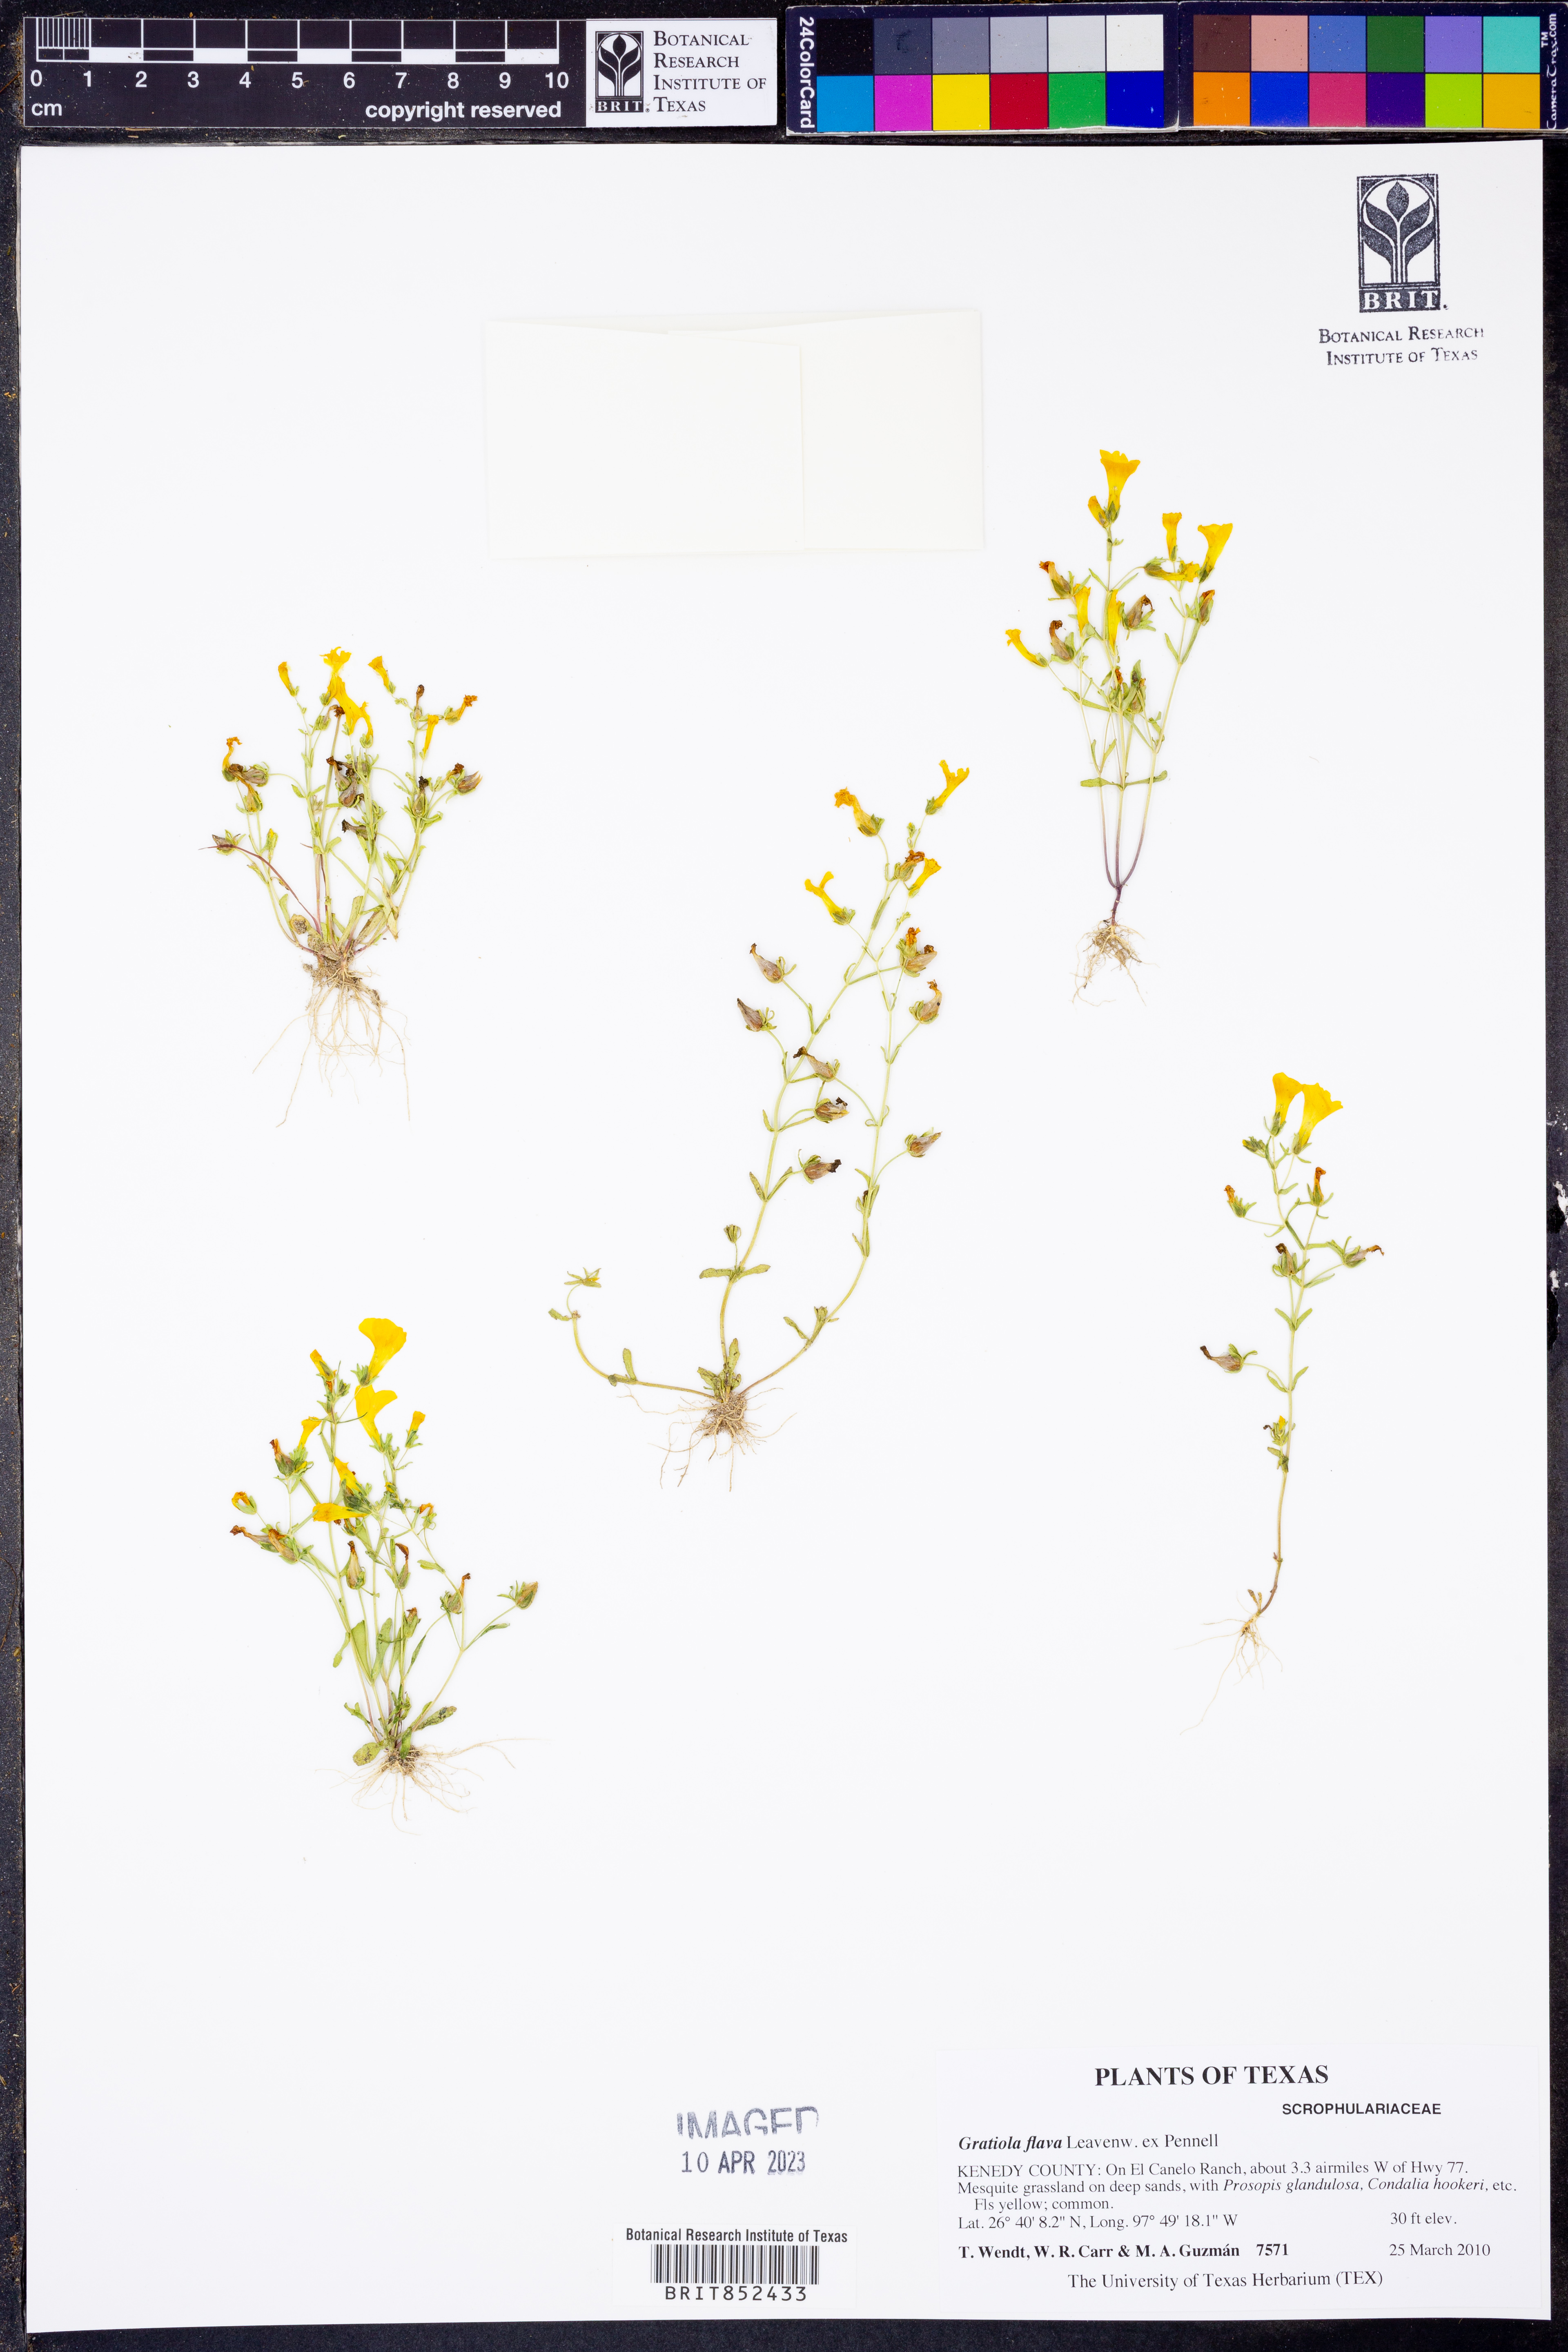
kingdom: Plantae
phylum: Tracheophyta
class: Magnoliopsida
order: Lamiales
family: Plantaginaceae
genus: Gratiola
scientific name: Gratiola flava
